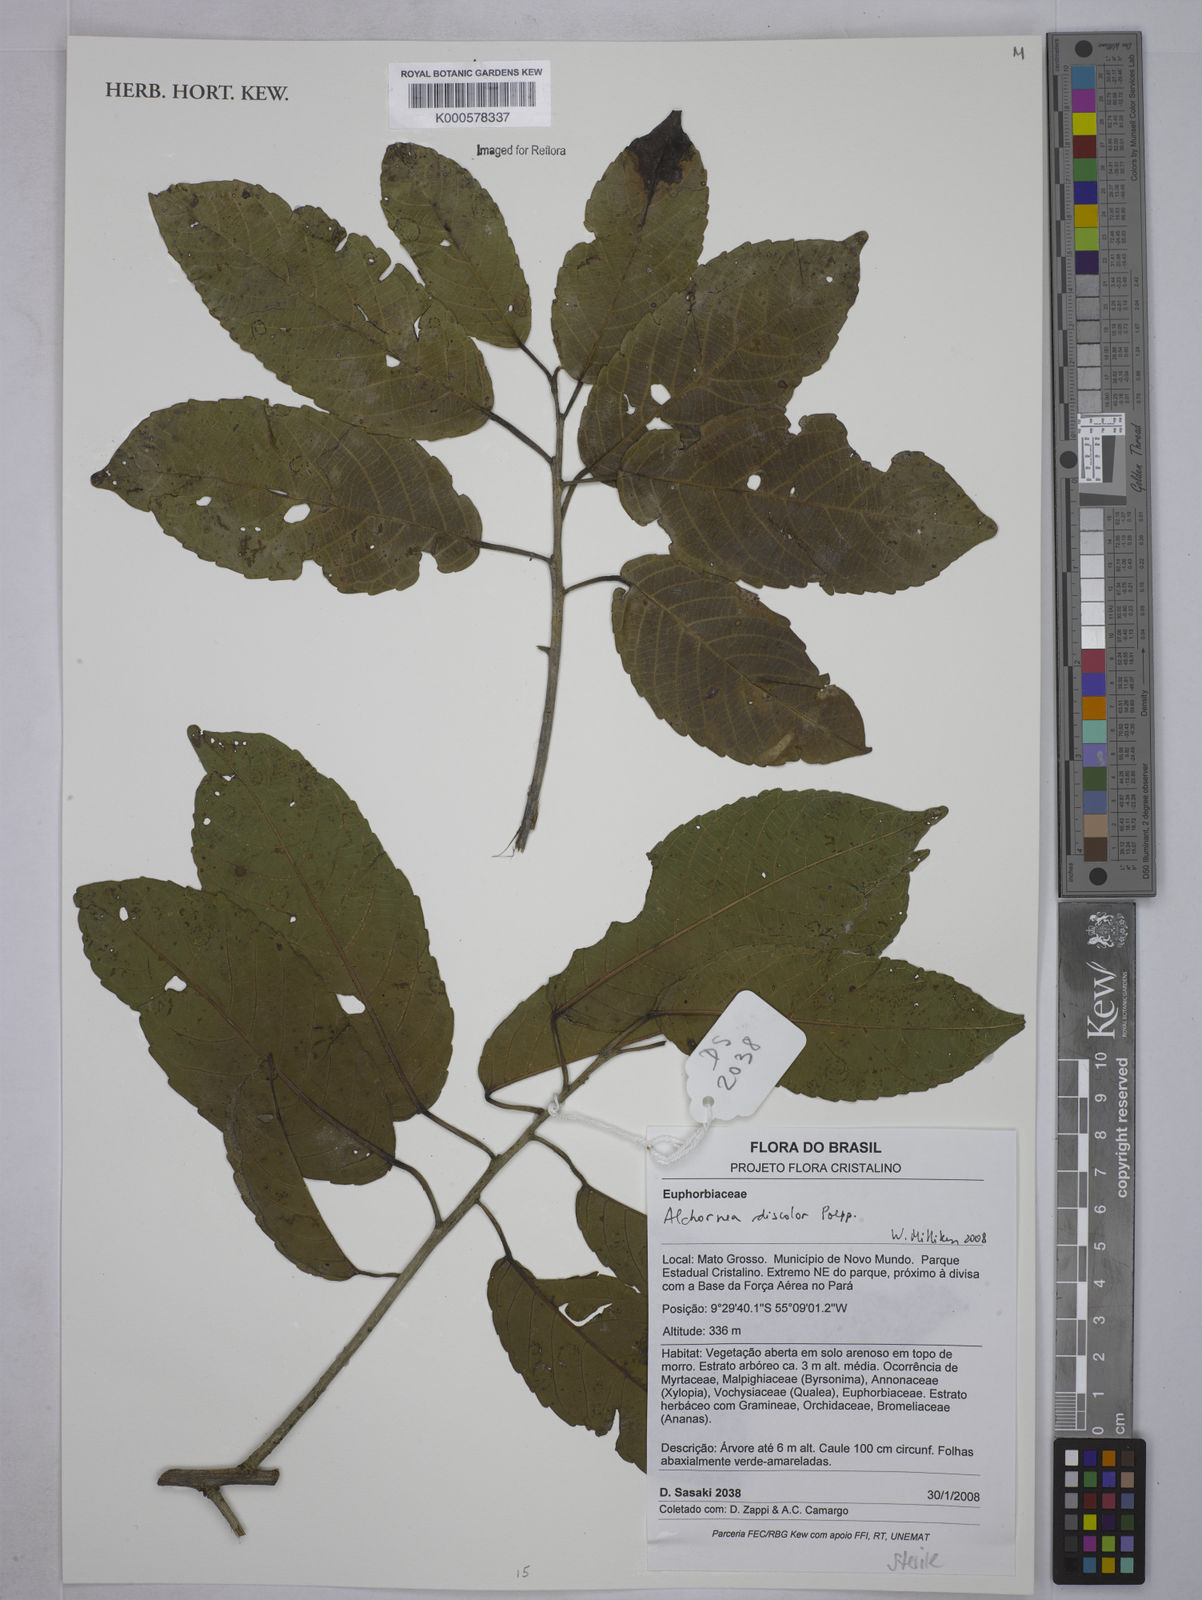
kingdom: Plantae
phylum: Tracheophyta
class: Magnoliopsida
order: Malpighiales
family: Euphorbiaceae
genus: Alchornea
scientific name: Alchornea discolor
